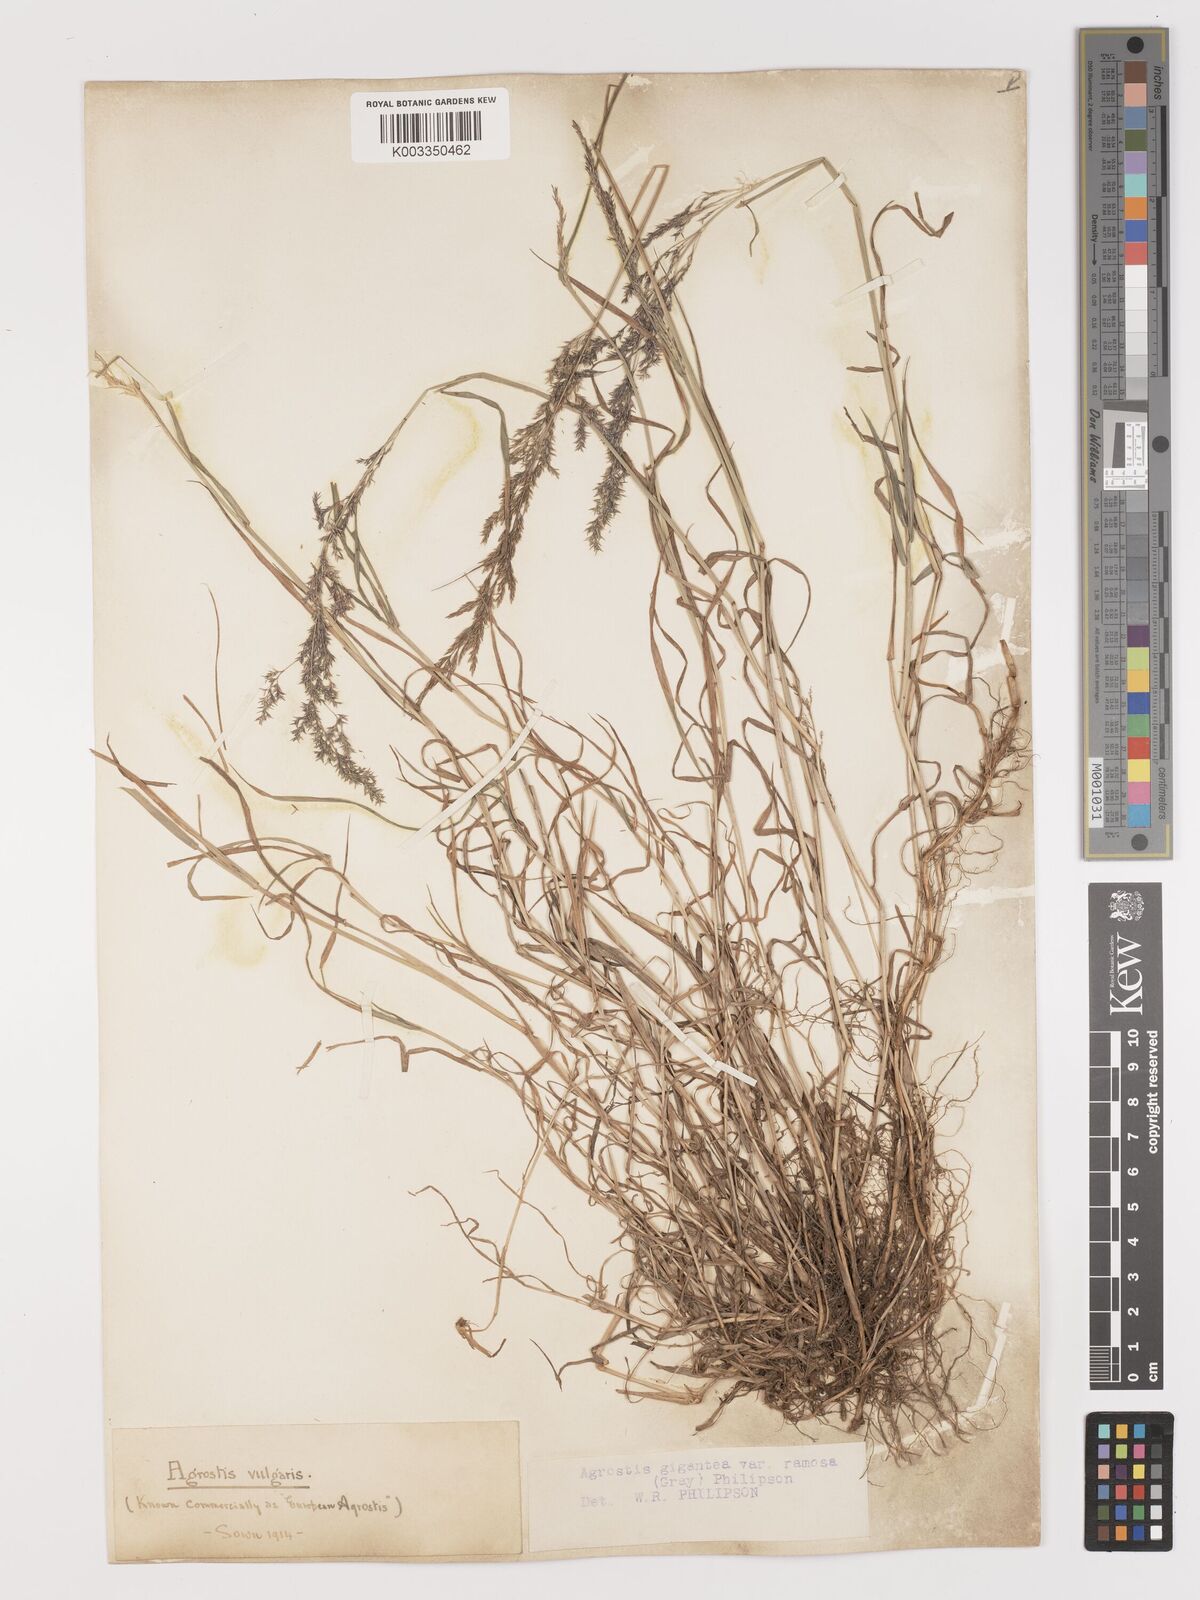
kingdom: Plantae
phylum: Tracheophyta
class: Liliopsida
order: Poales
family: Poaceae
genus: Agrostis
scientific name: Agrostis gigantea
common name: Black bent
